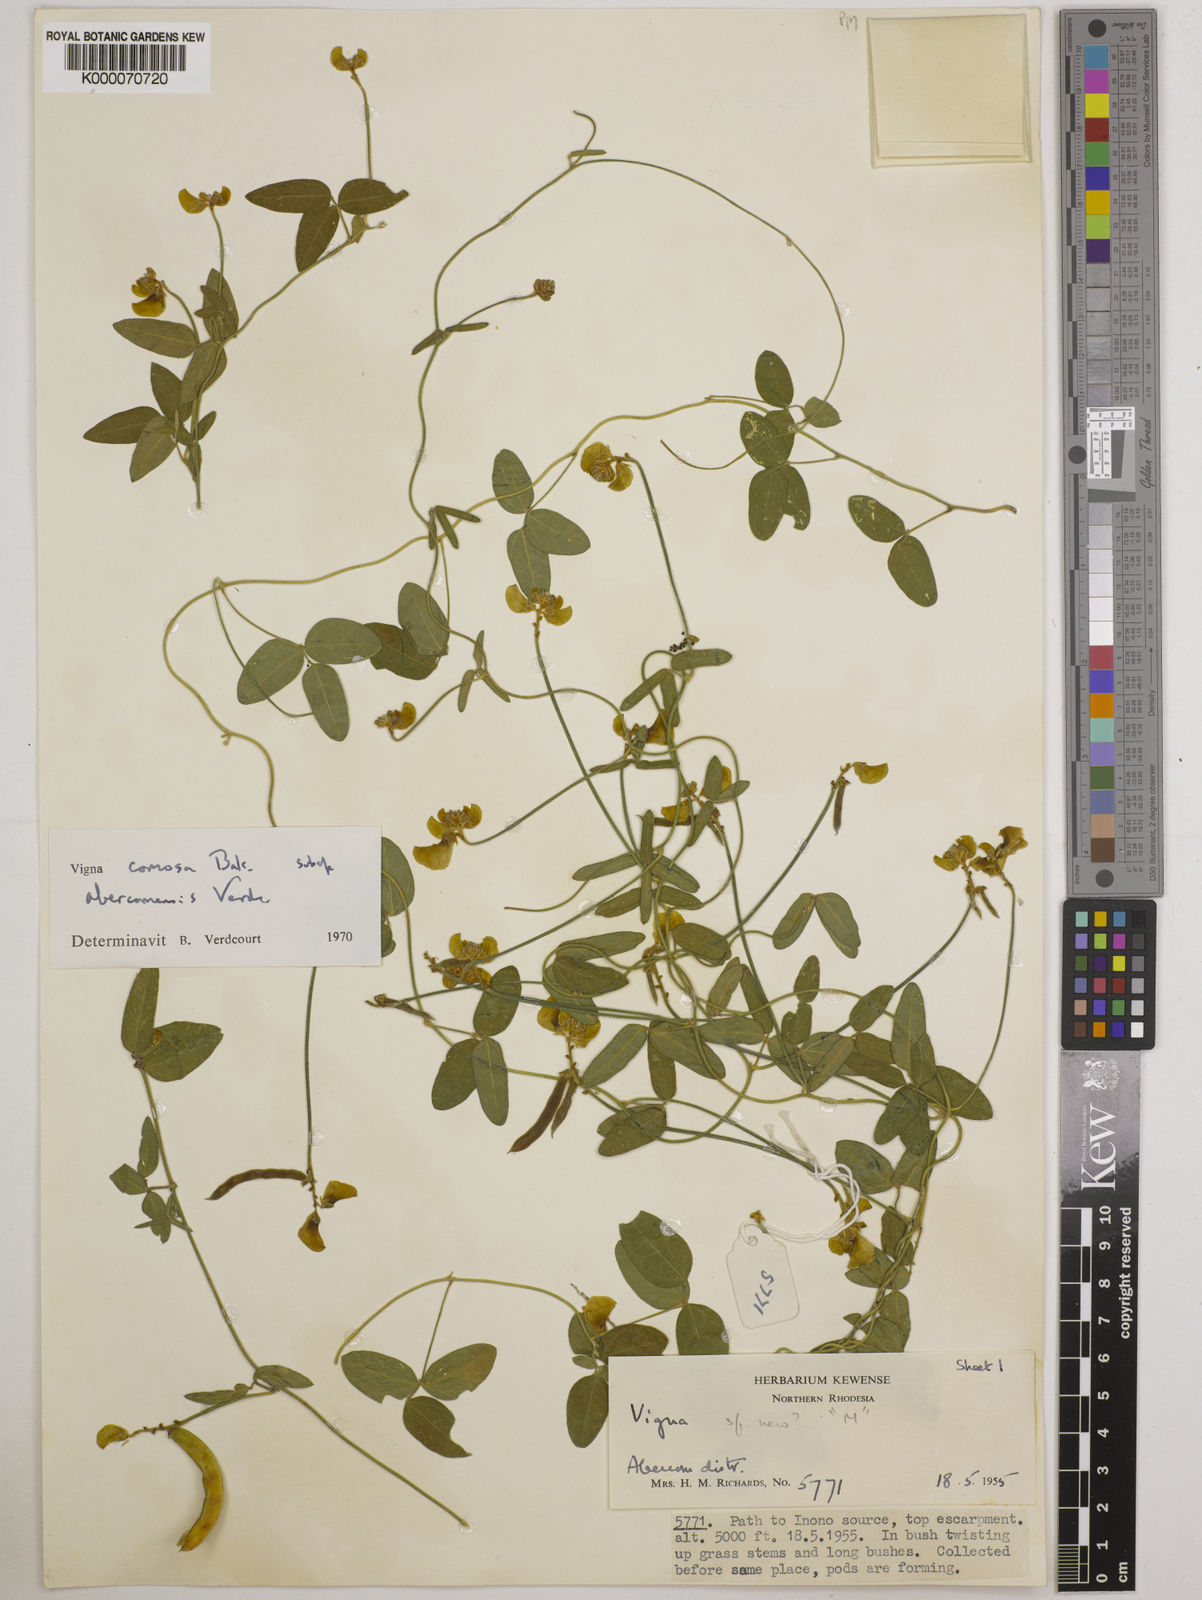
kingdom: Plantae
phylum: Tracheophyta
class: Magnoliopsida
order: Fabales
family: Fabaceae
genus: Vigna
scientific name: Vigna comosa
